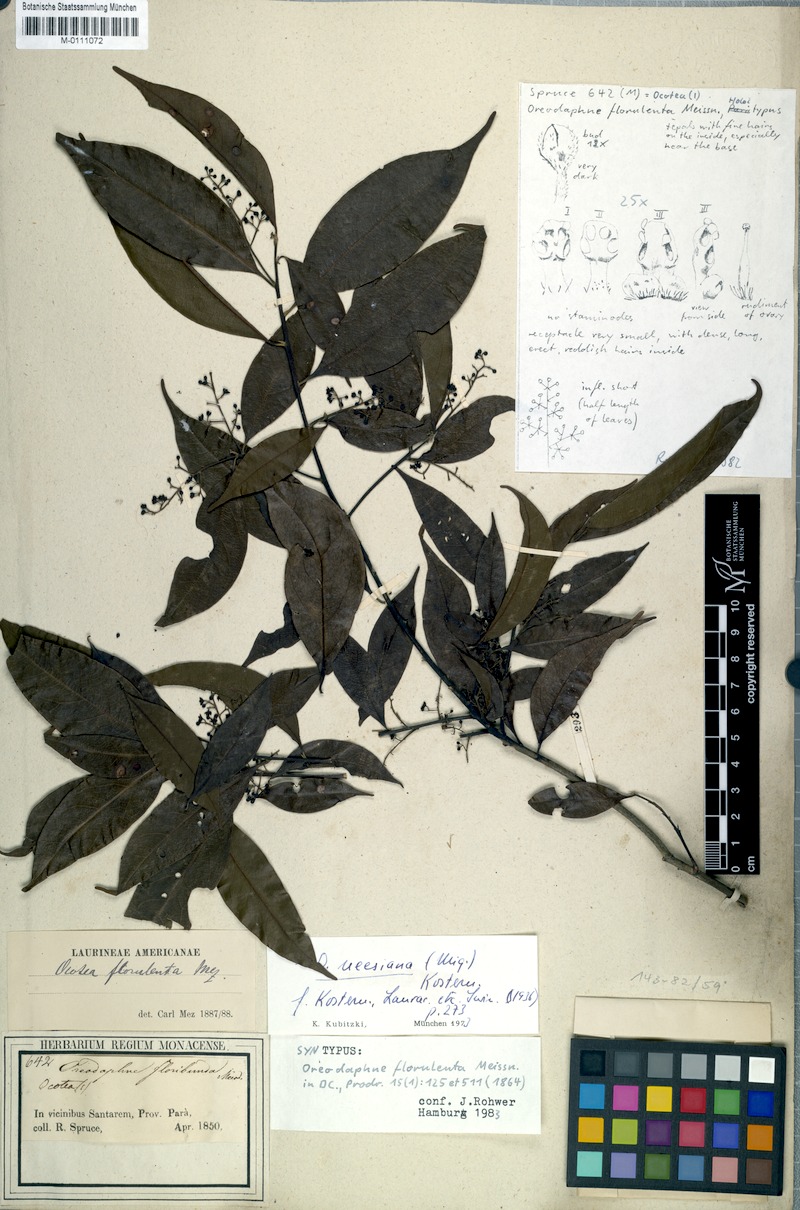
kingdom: Plantae
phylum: Tracheophyta
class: Magnoliopsida
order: Laurales
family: Lauraceae
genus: Ocotea
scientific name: Ocotea neesiana
